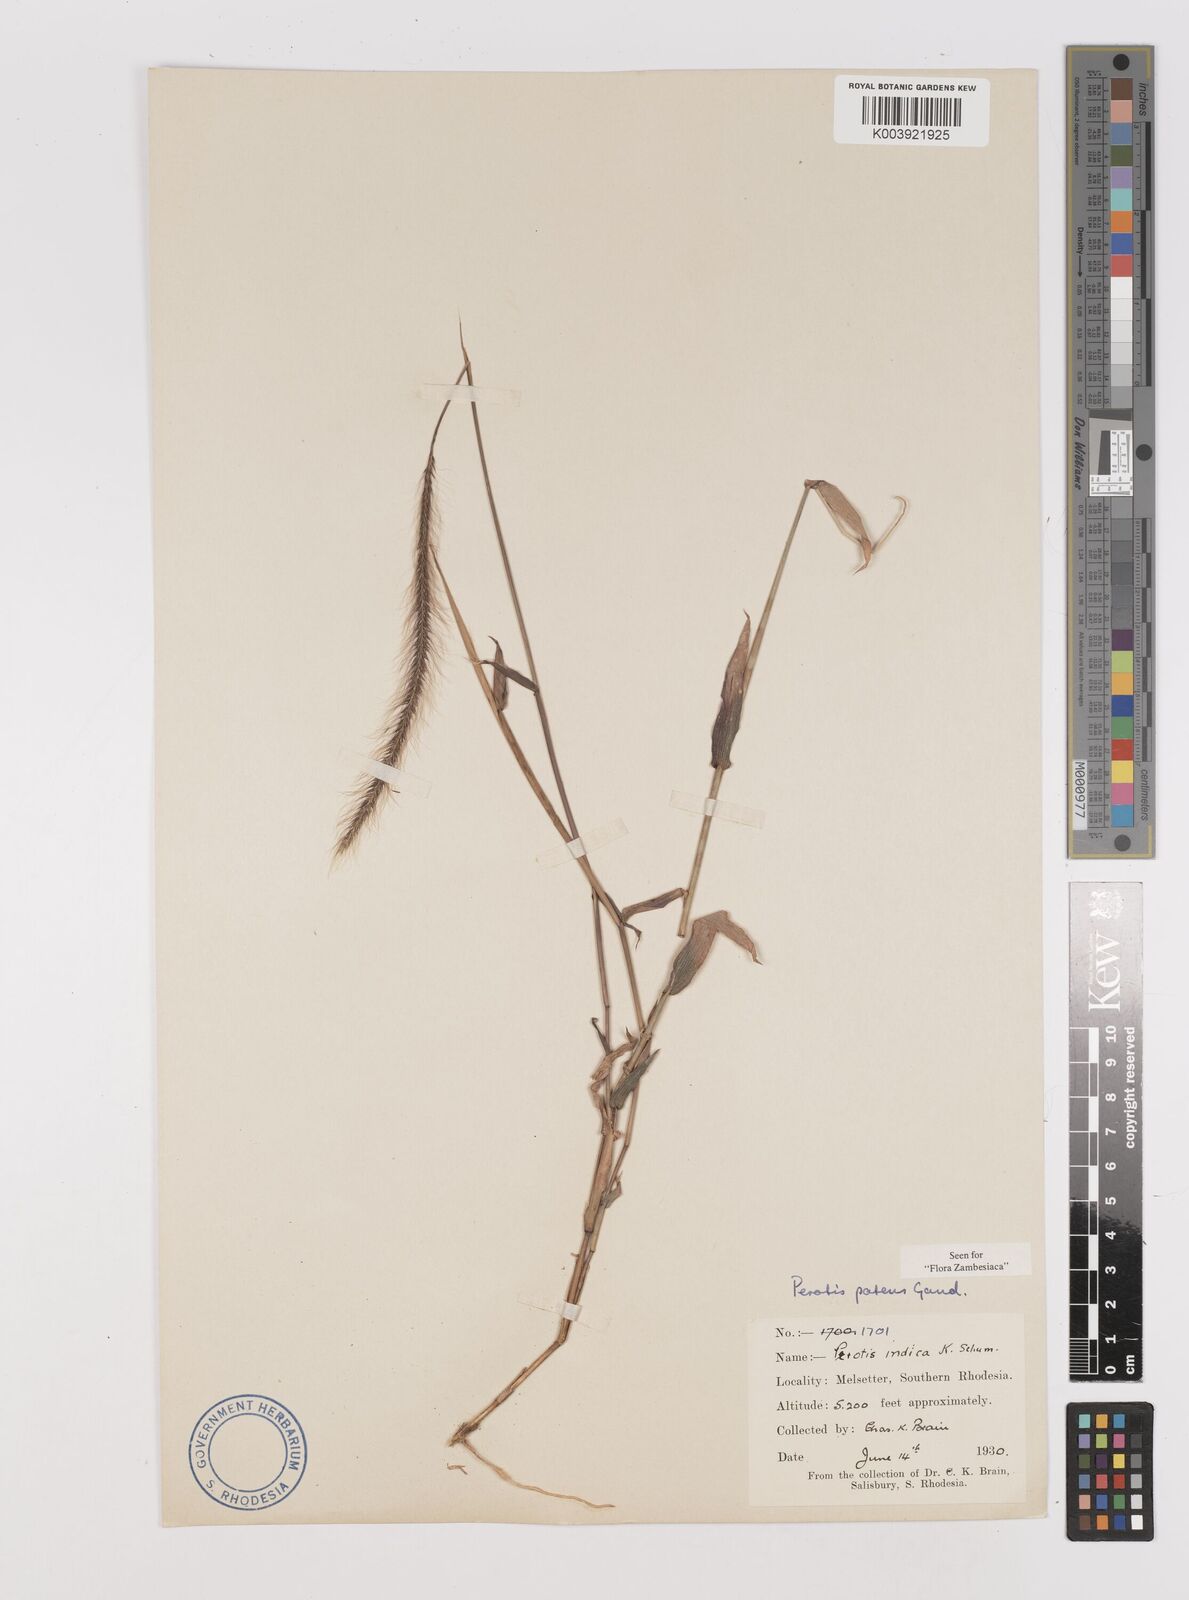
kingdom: Plantae
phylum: Tracheophyta
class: Liliopsida
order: Poales
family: Poaceae
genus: Perotis
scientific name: Perotis patens
